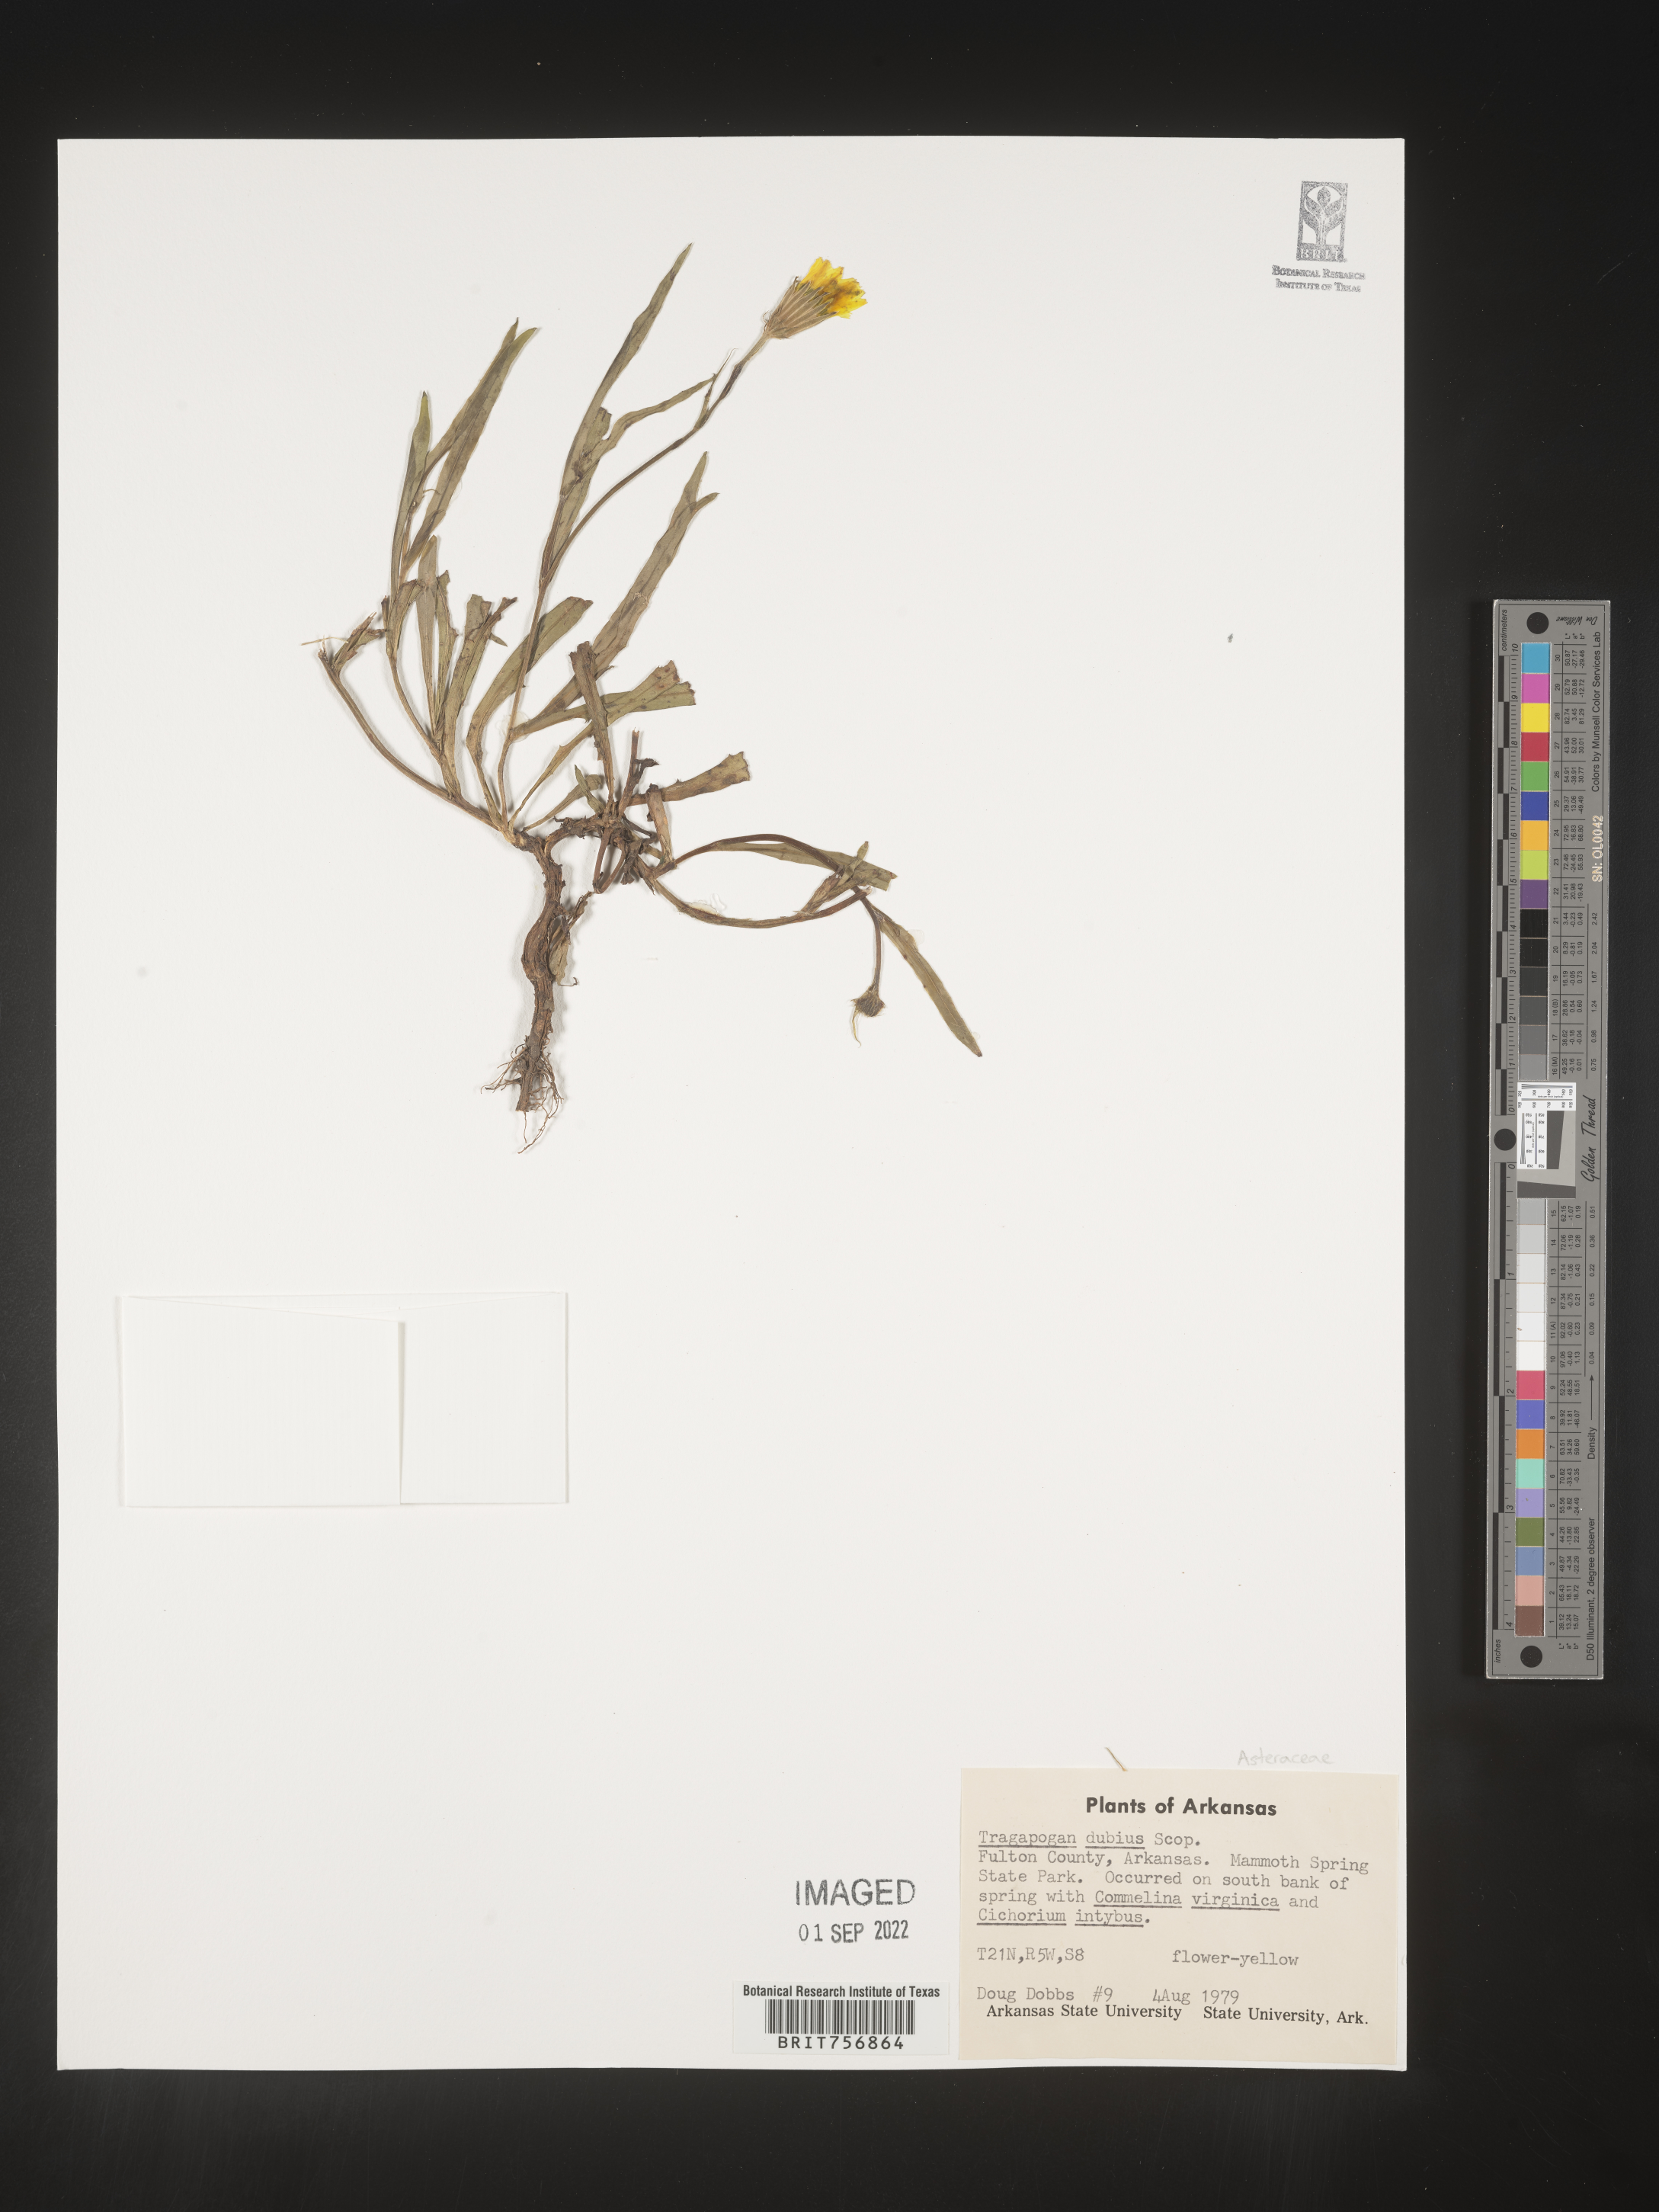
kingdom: Plantae
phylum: Tracheophyta
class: Magnoliopsida
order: Asterales
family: Asteraceae
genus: Tragopogon
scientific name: Tragopogon dubius
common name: Yellow salsify
